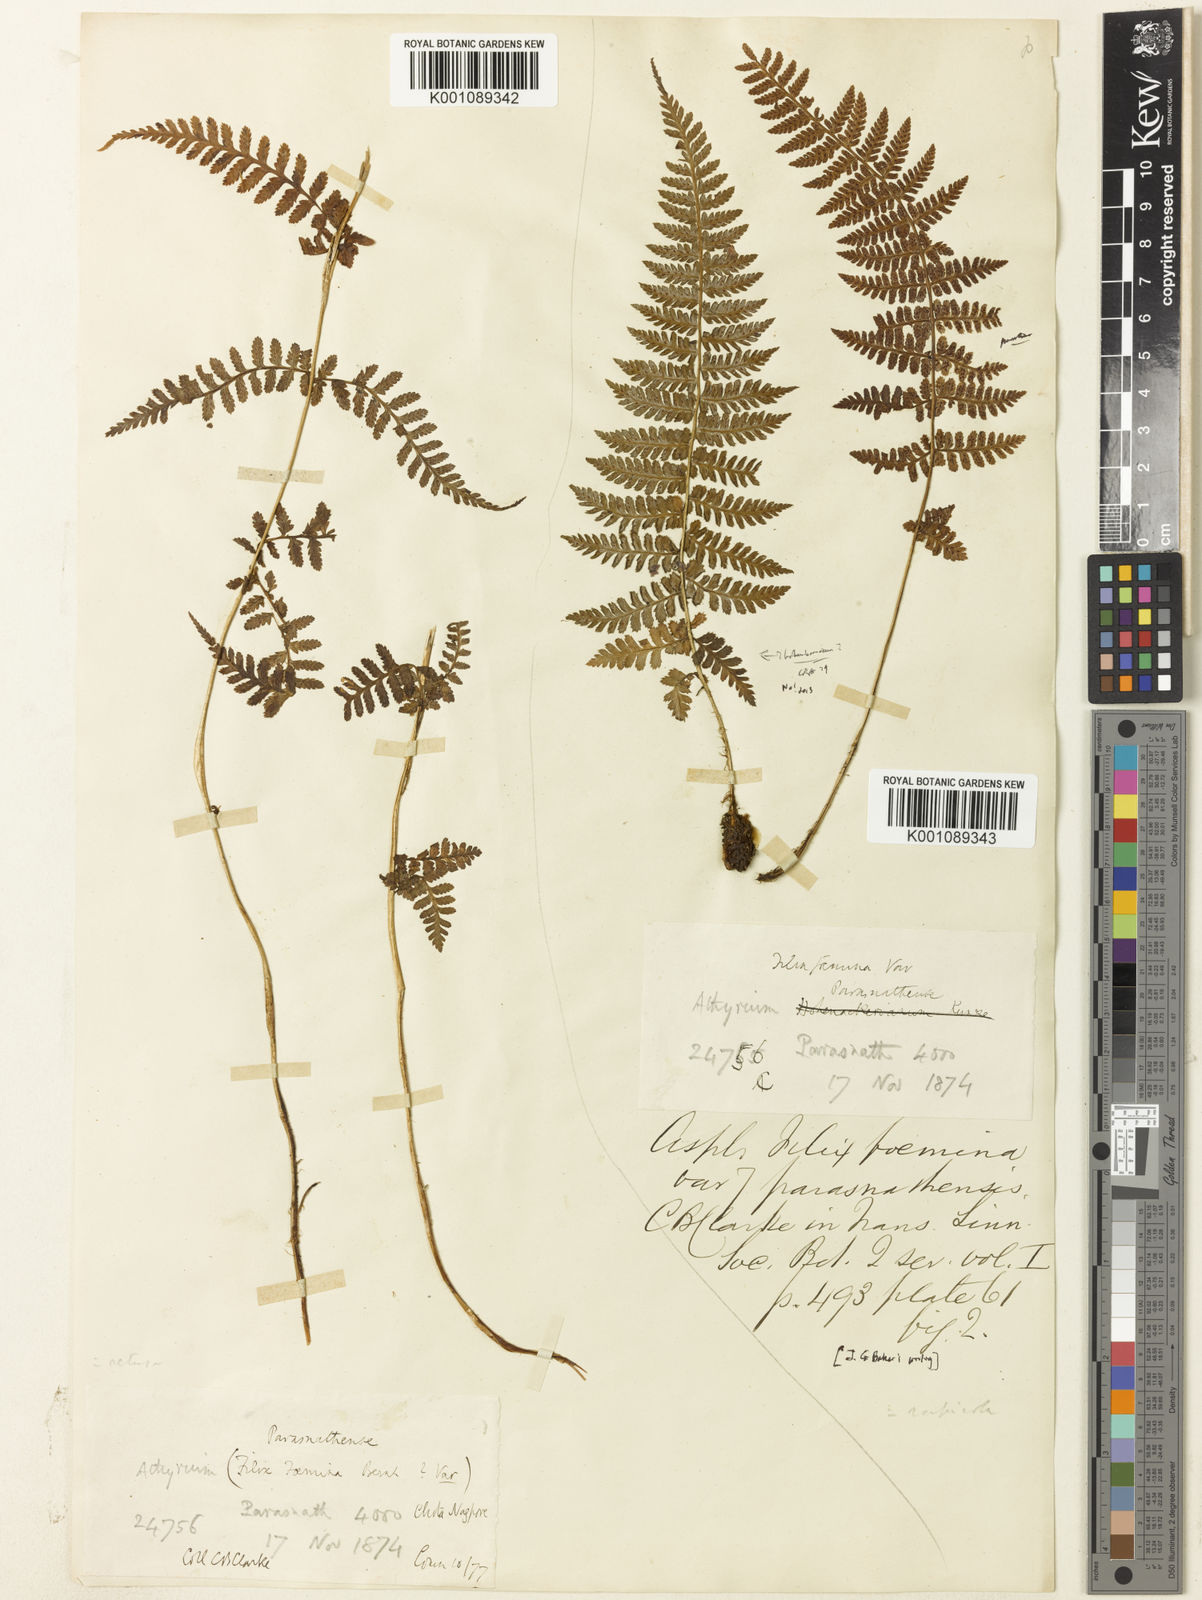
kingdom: Plantae
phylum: Tracheophyta
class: Polypodiopsida
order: Polypodiales
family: Athyriaceae
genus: Athyrium
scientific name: Athyrium filix-femina
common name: Lady fern
